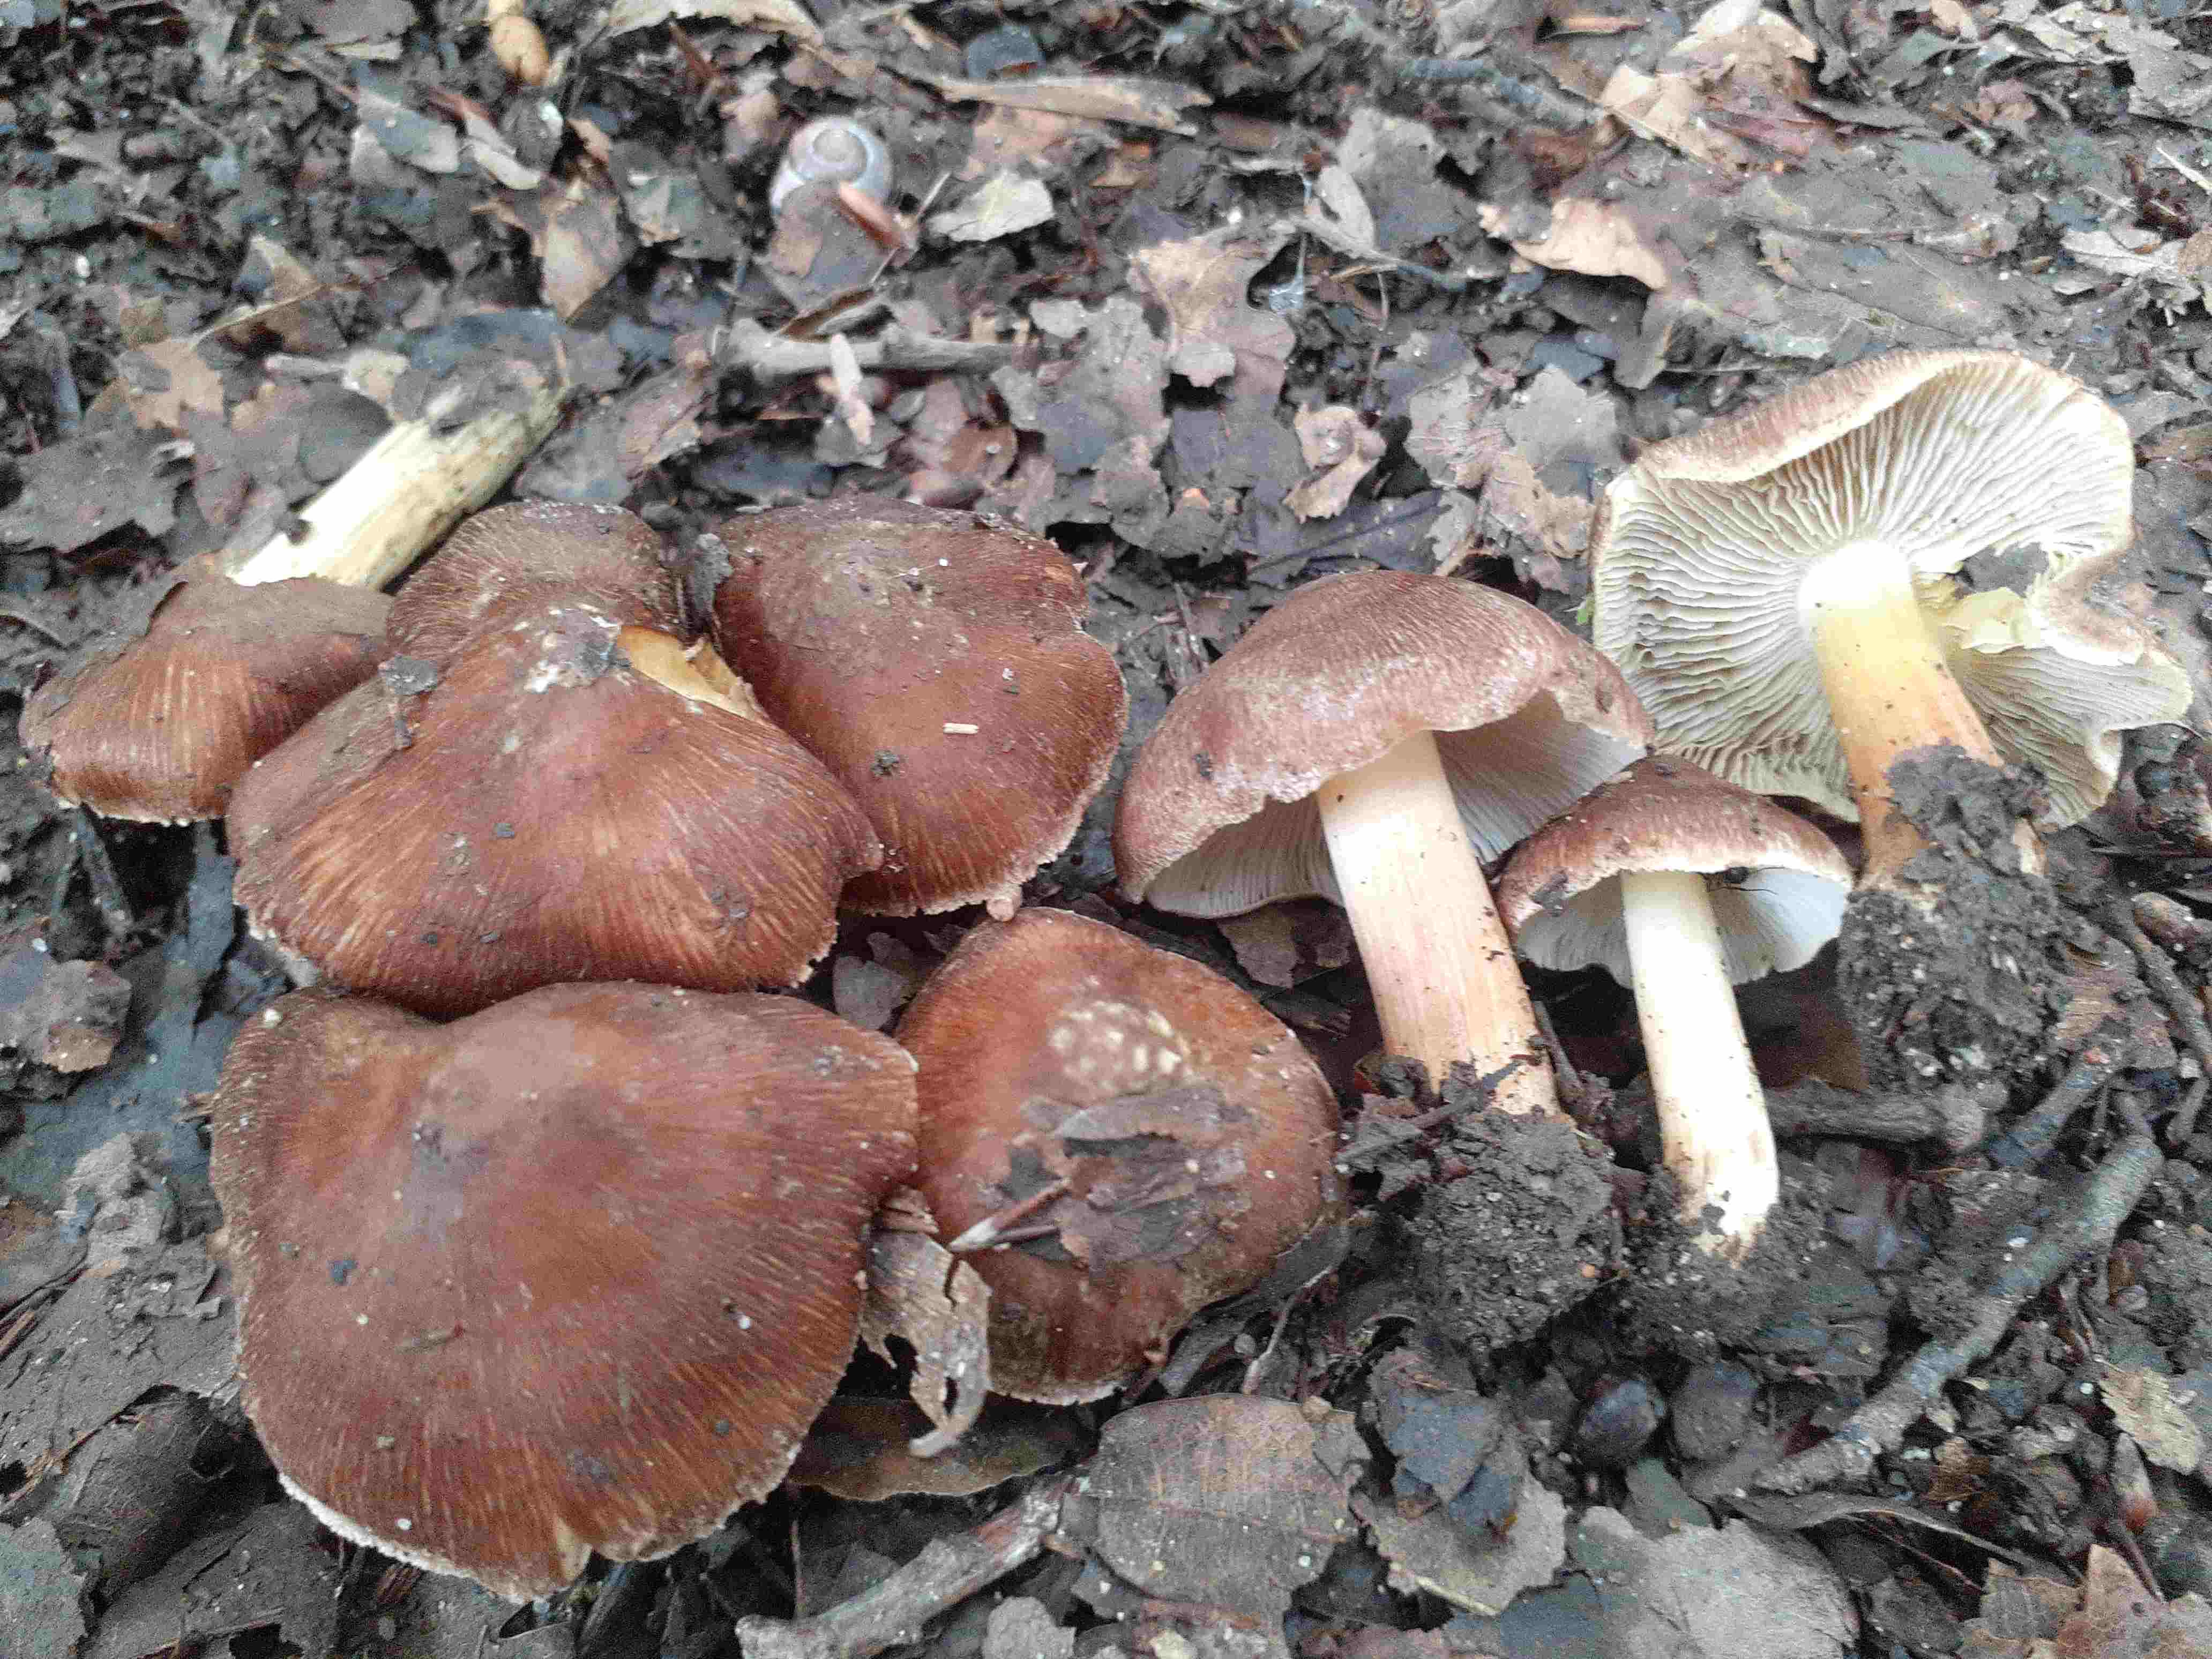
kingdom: Fungi
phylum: Basidiomycota
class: Agaricomycetes
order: Agaricales
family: Inocybaceae
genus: Inosperma
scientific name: Inosperma
